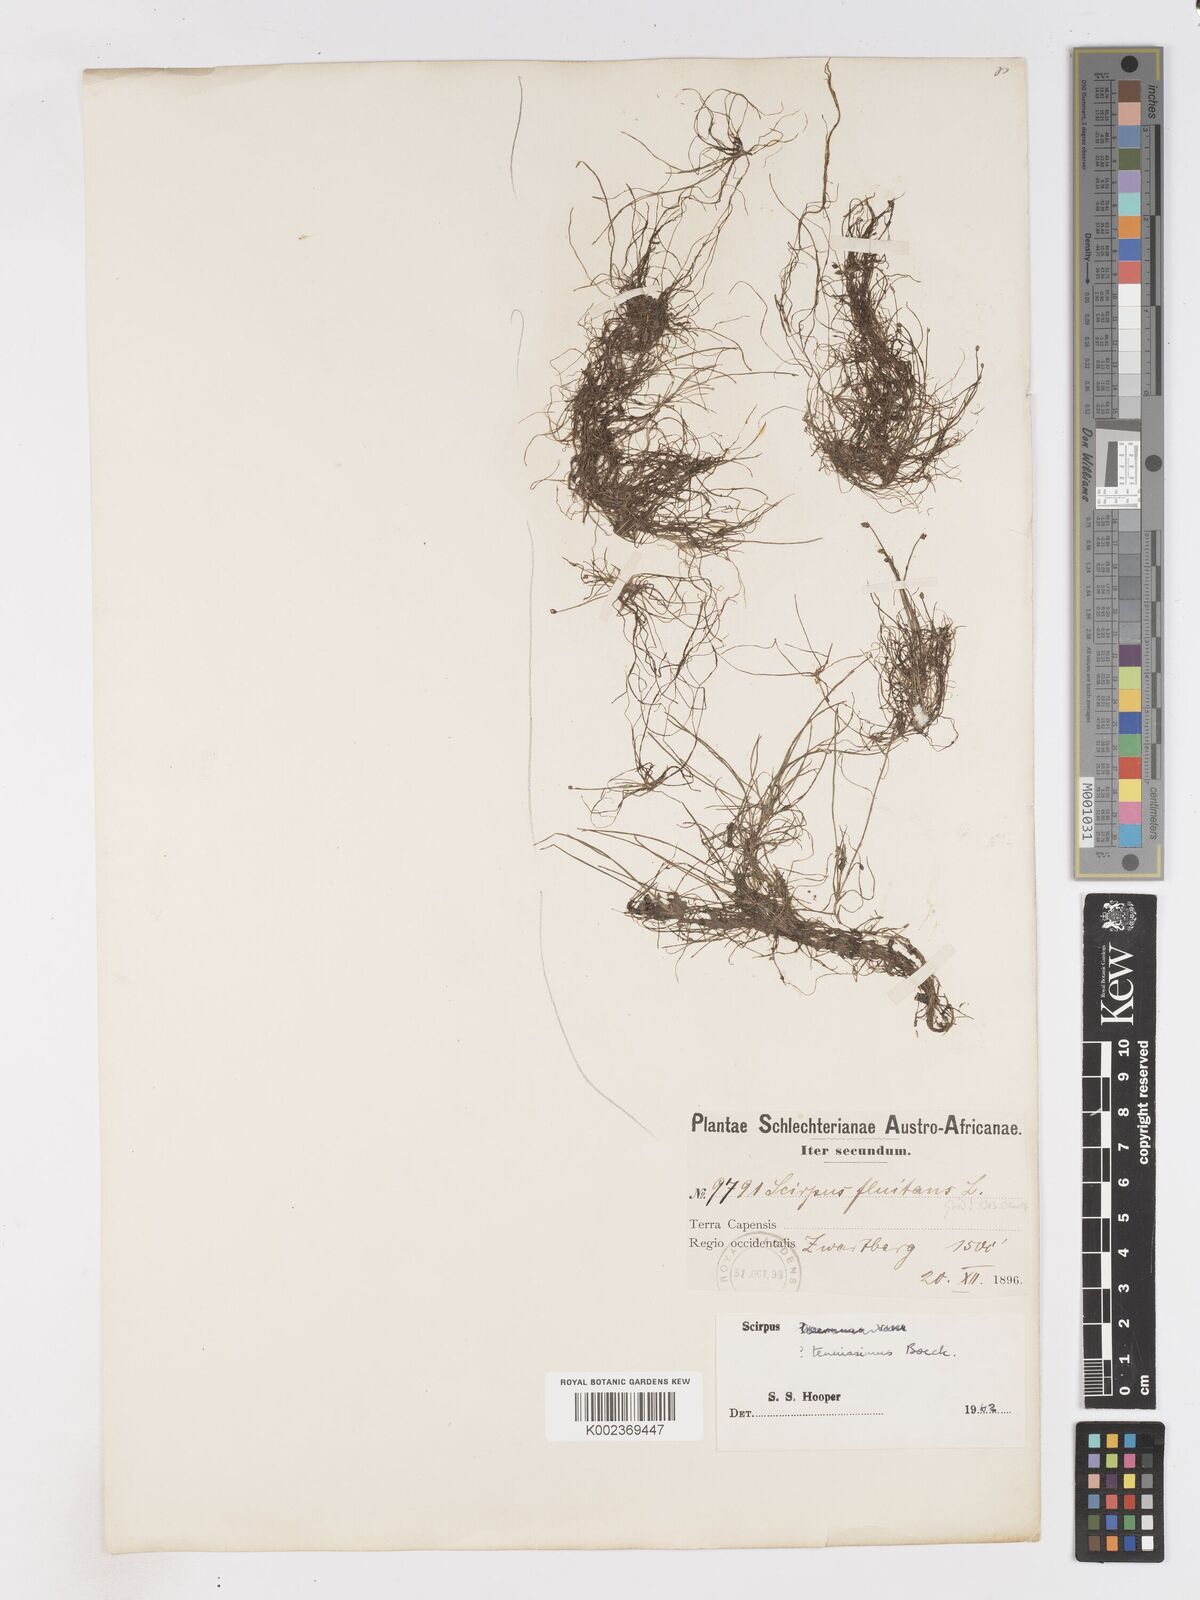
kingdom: Plantae
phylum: Tracheophyta
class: Liliopsida
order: Poales
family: Cyperaceae
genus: Isolepis
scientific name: Isolepis tenuissima
